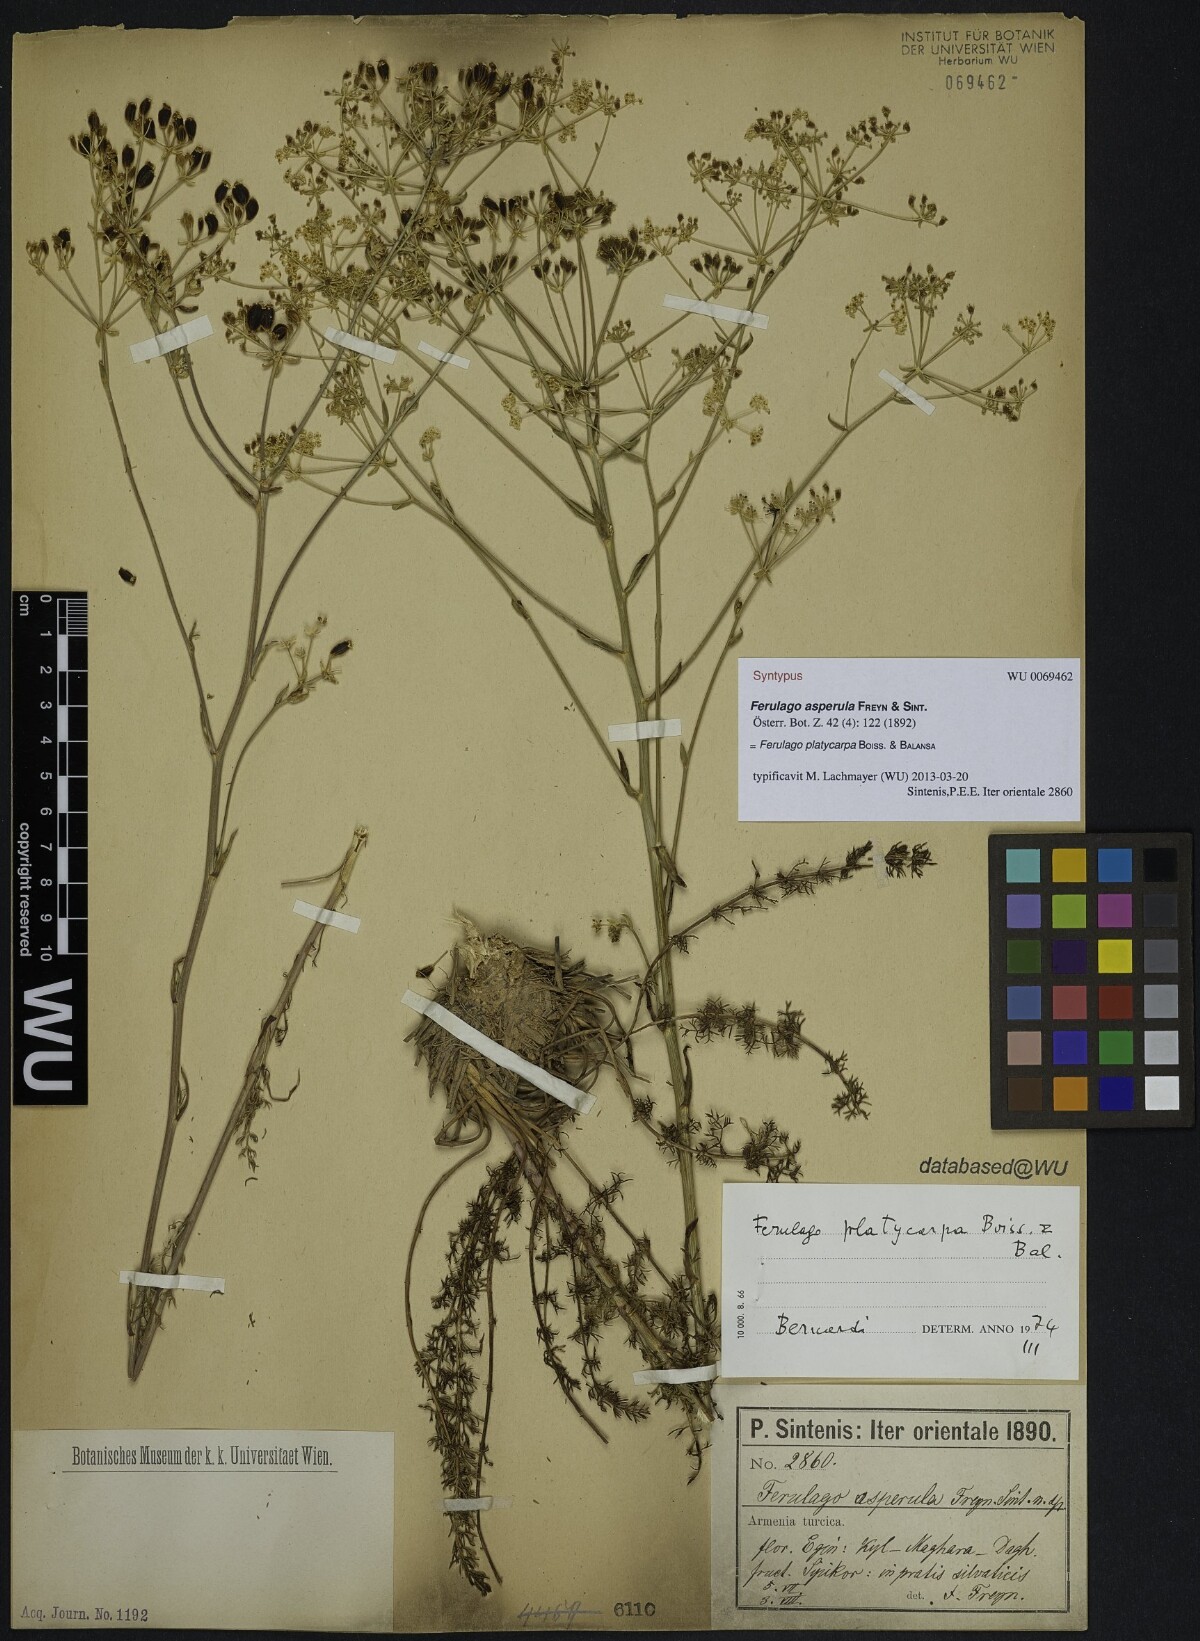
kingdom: Plantae
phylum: Tracheophyta
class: Magnoliopsida
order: Apiales
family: Apiaceae
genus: Ferulago
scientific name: Ferulago platycarpa
